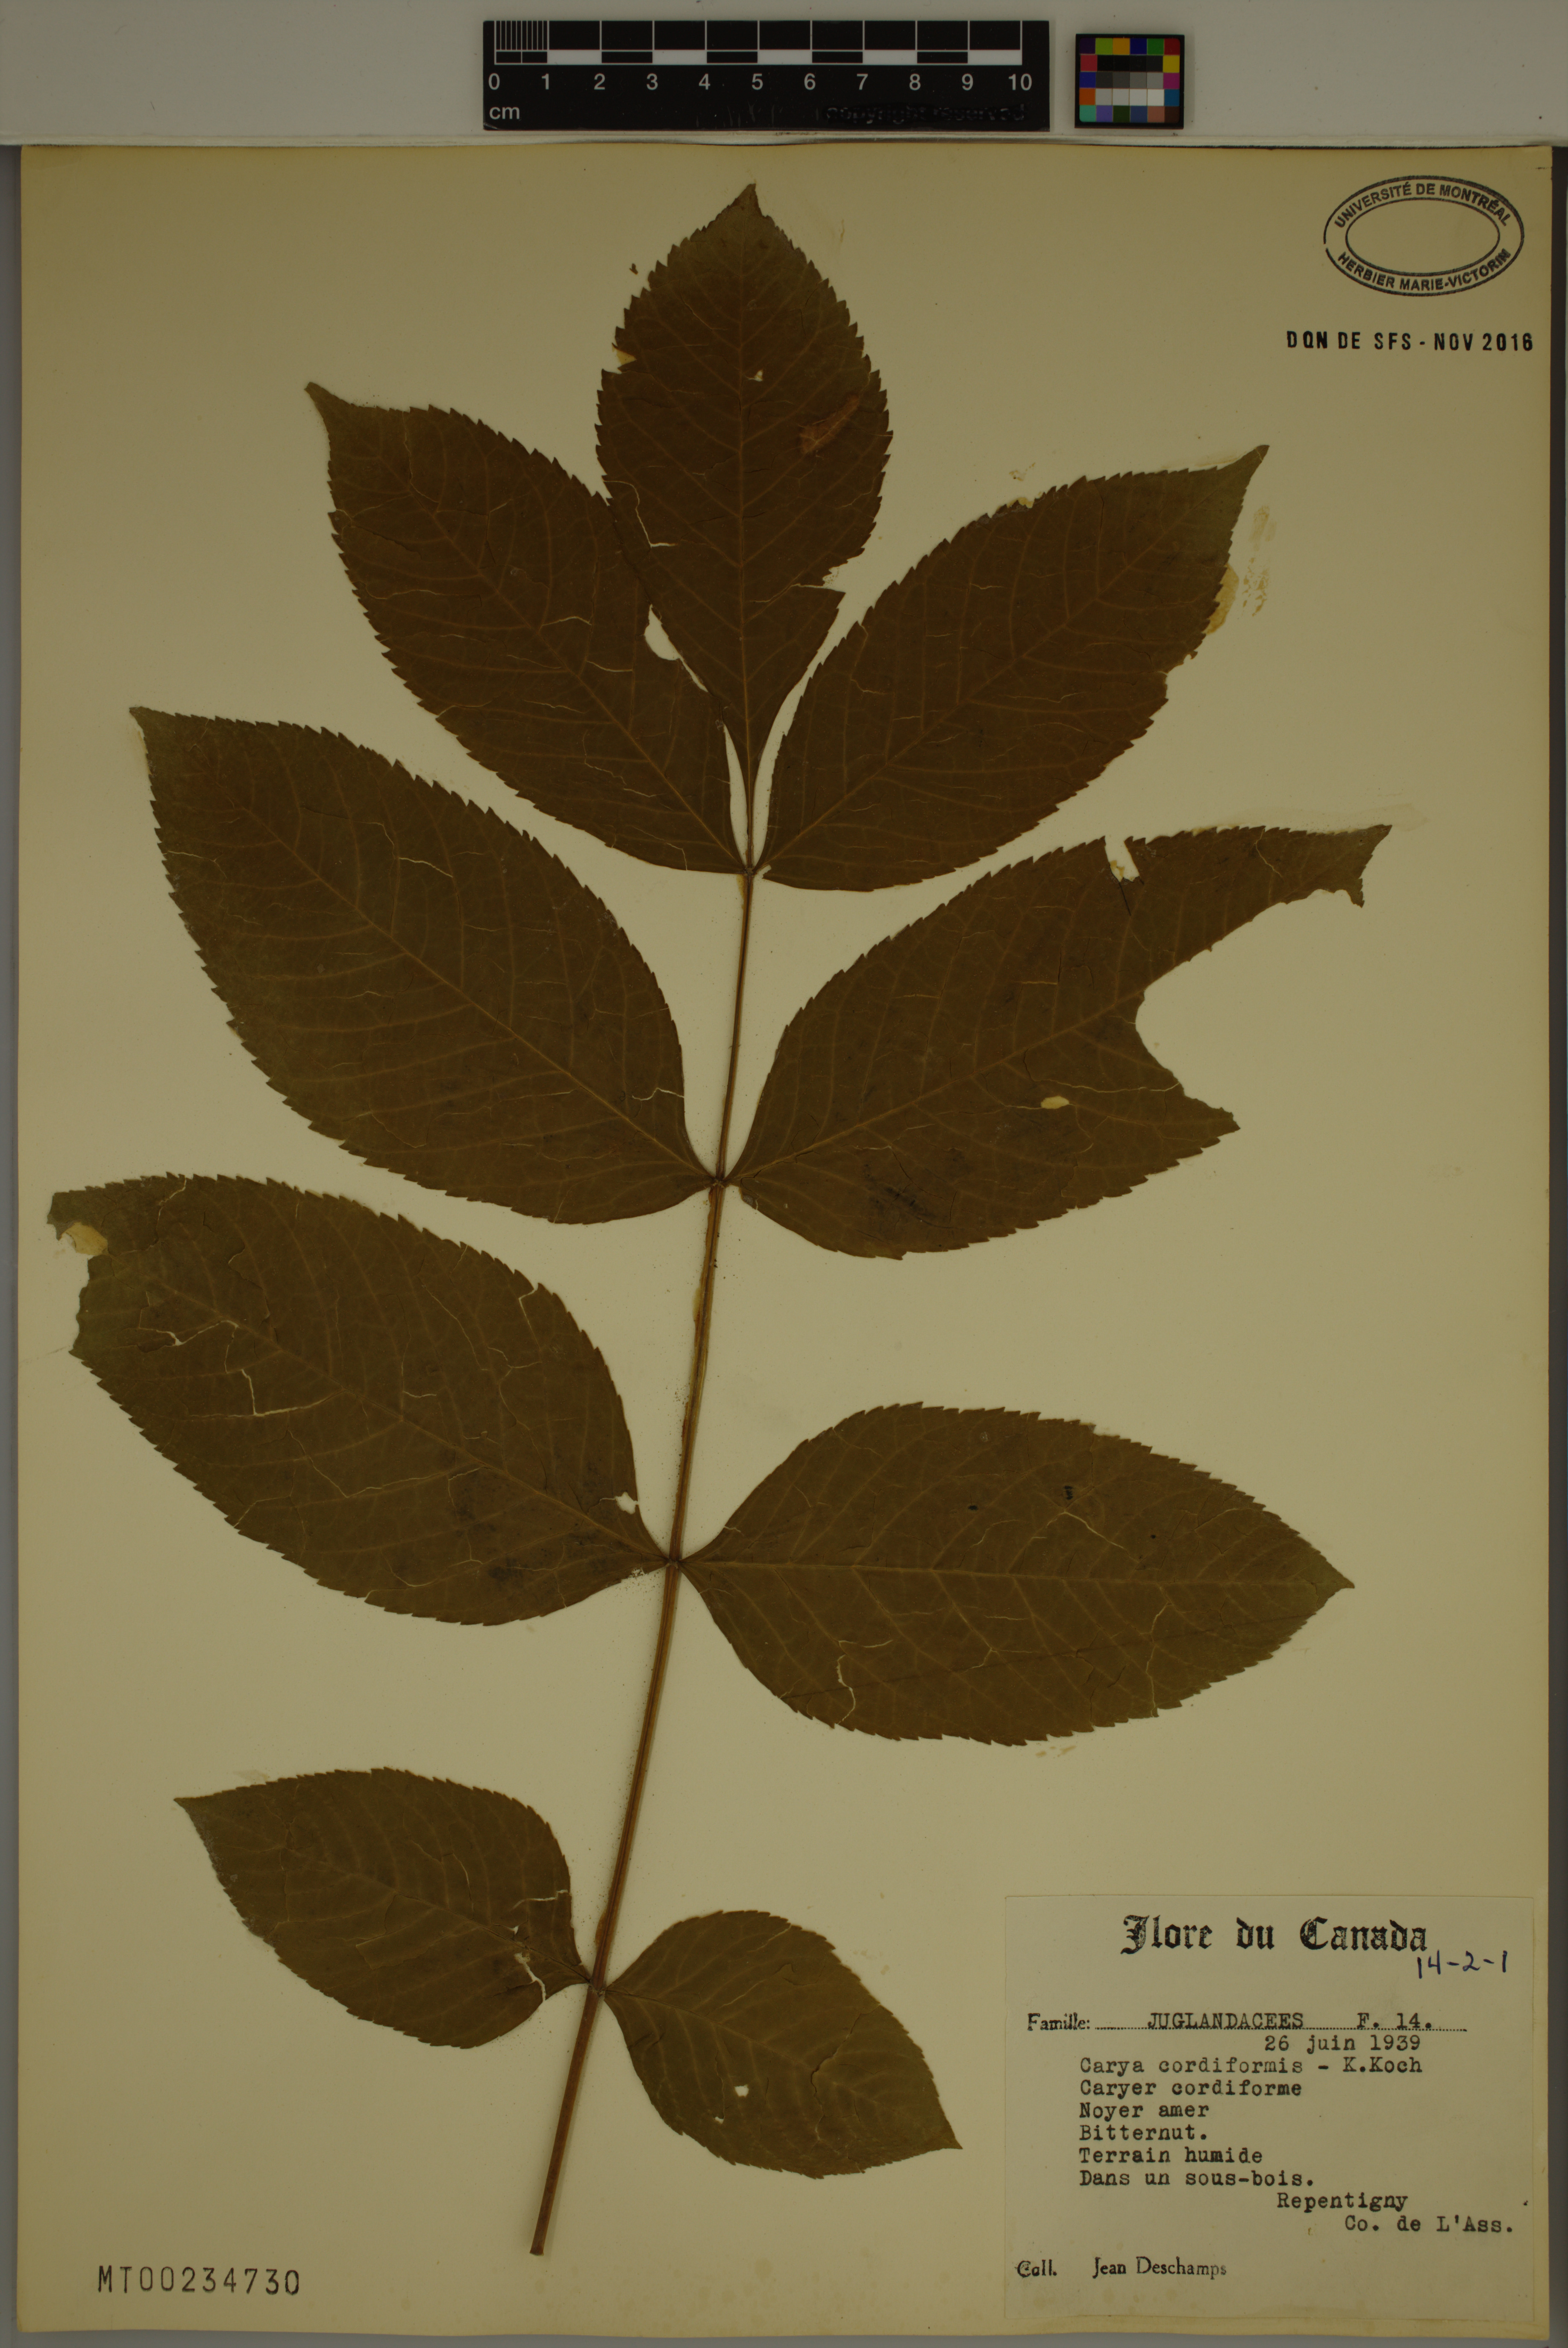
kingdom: Plantae
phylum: Tracheophyta
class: Magnoliopsida
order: Fagales
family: Juglandaceae
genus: Carya
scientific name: Carya cordiformis
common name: Bitternut hickory
